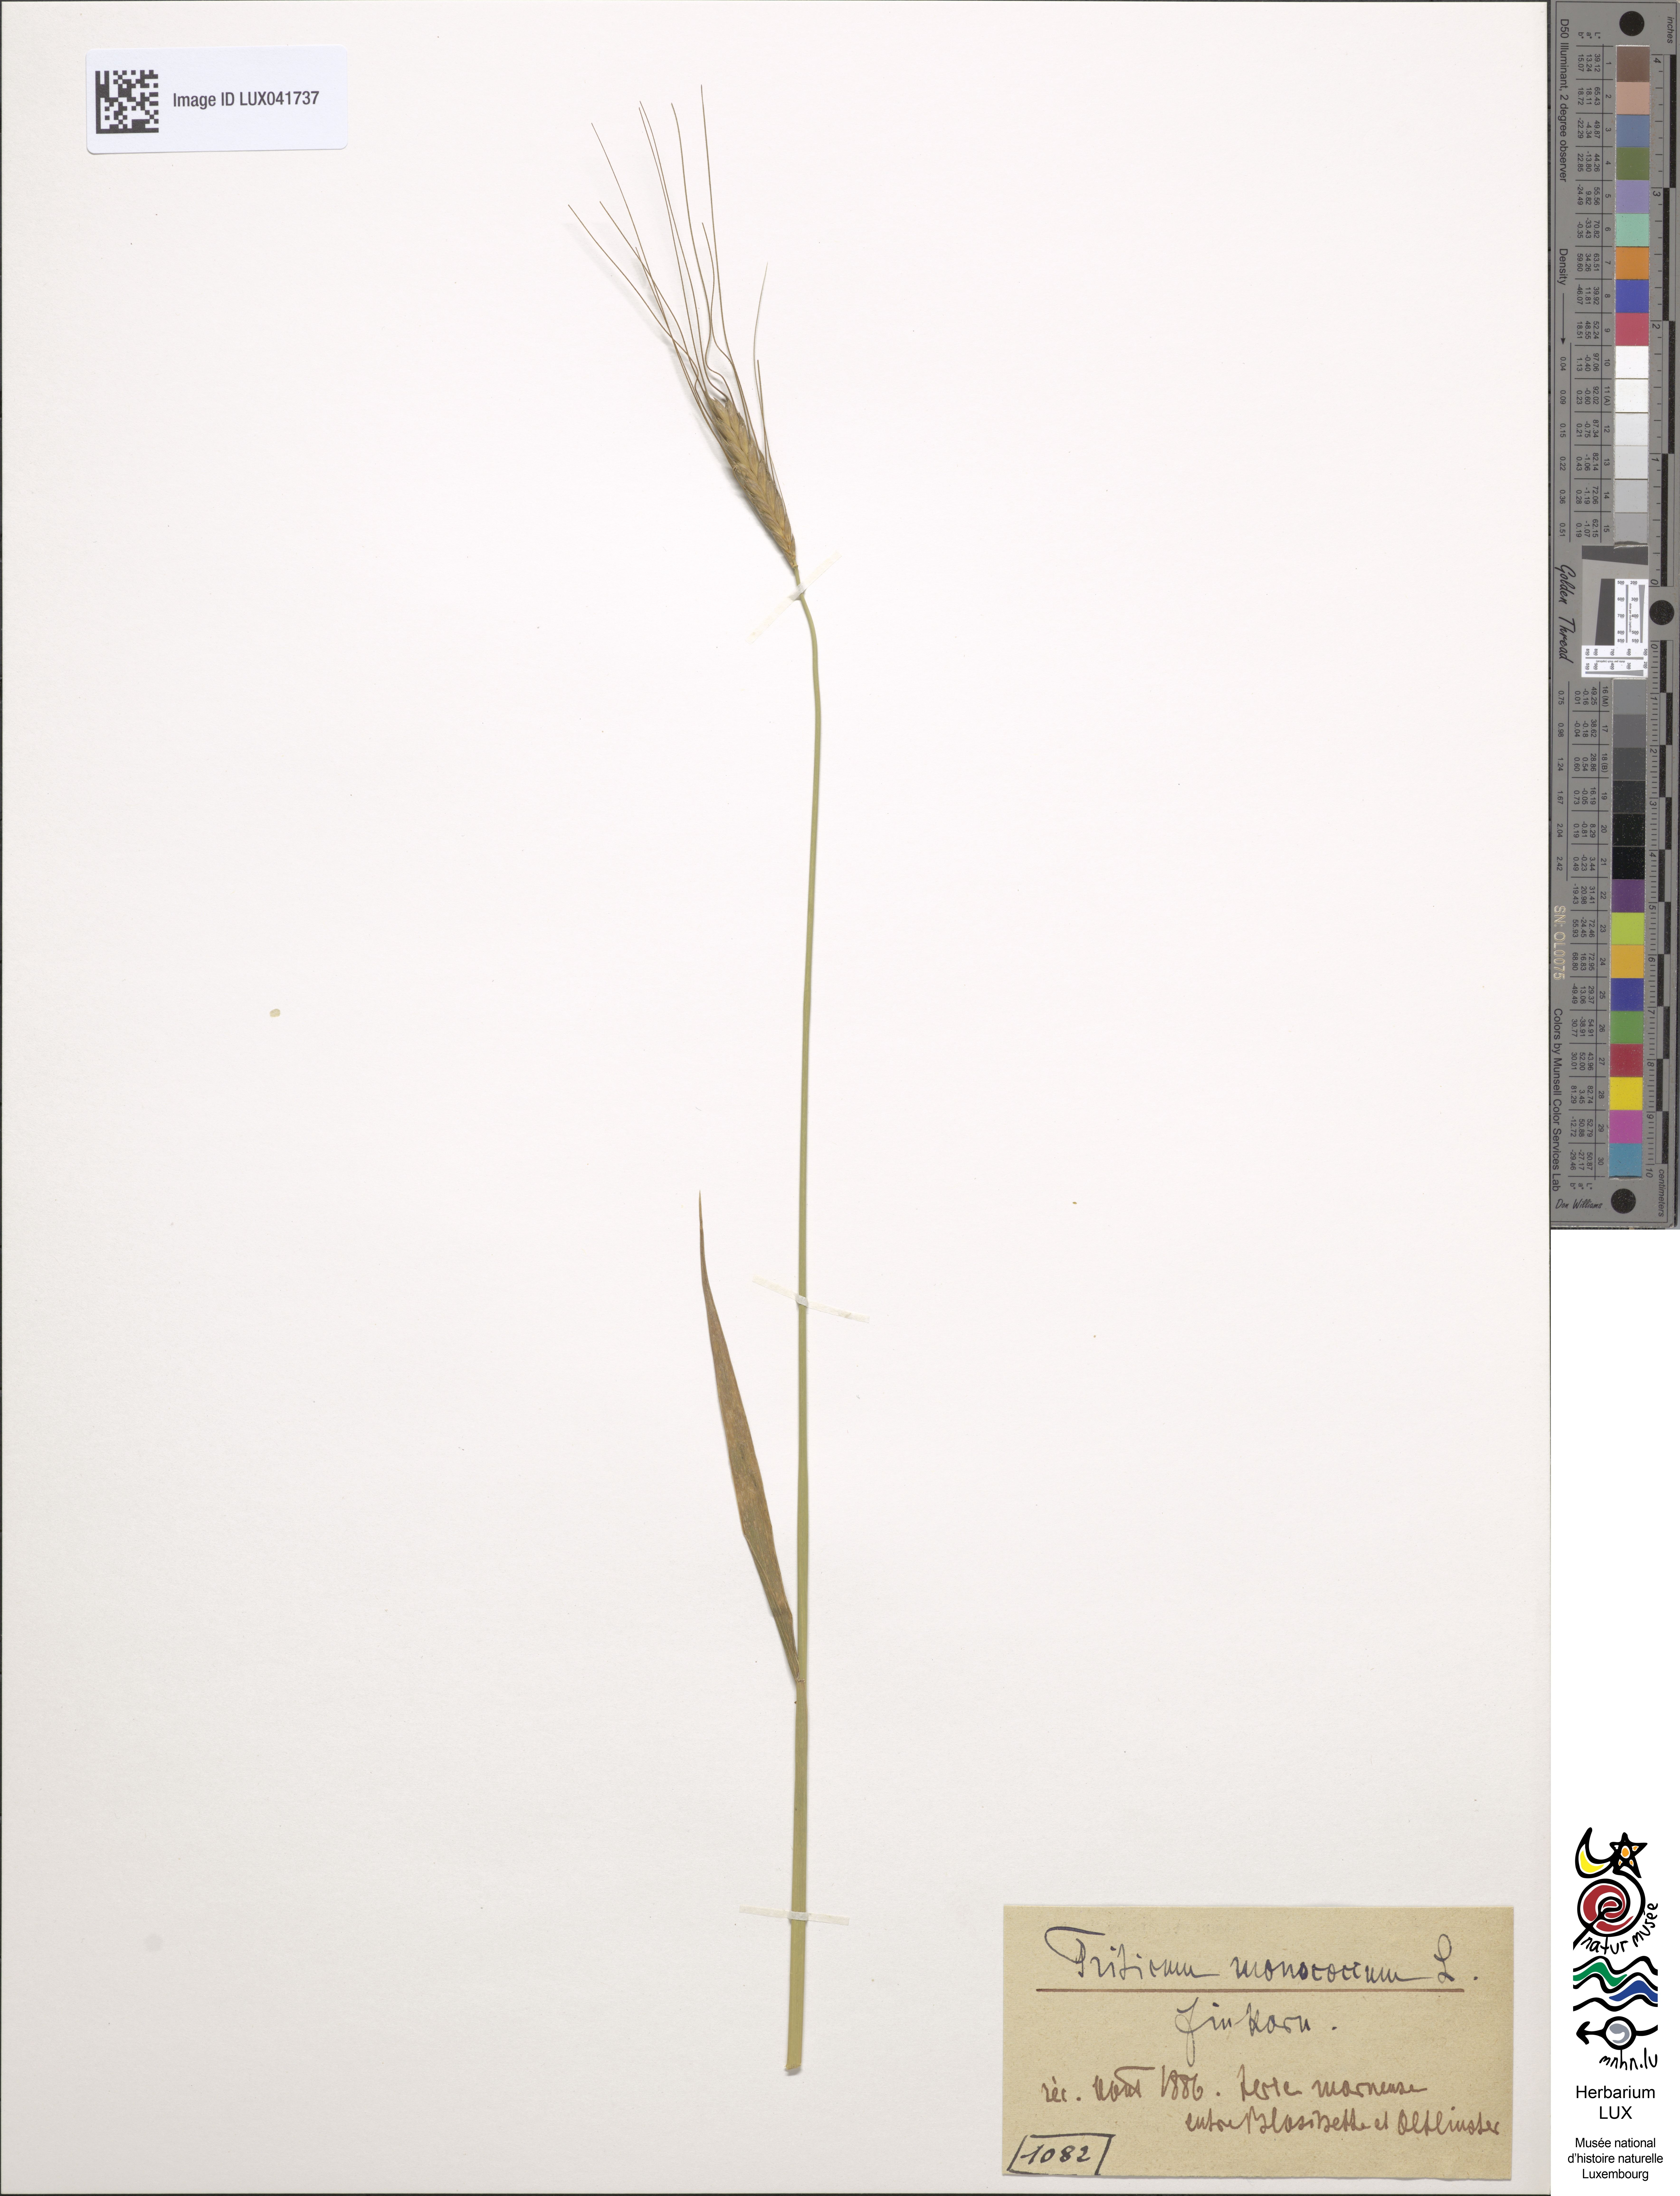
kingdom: Plantae
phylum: Tracheophyta
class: Liliopsida
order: Poales
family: Poaceae
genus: Triticum
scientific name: Triticum monococcum
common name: Einkorn
